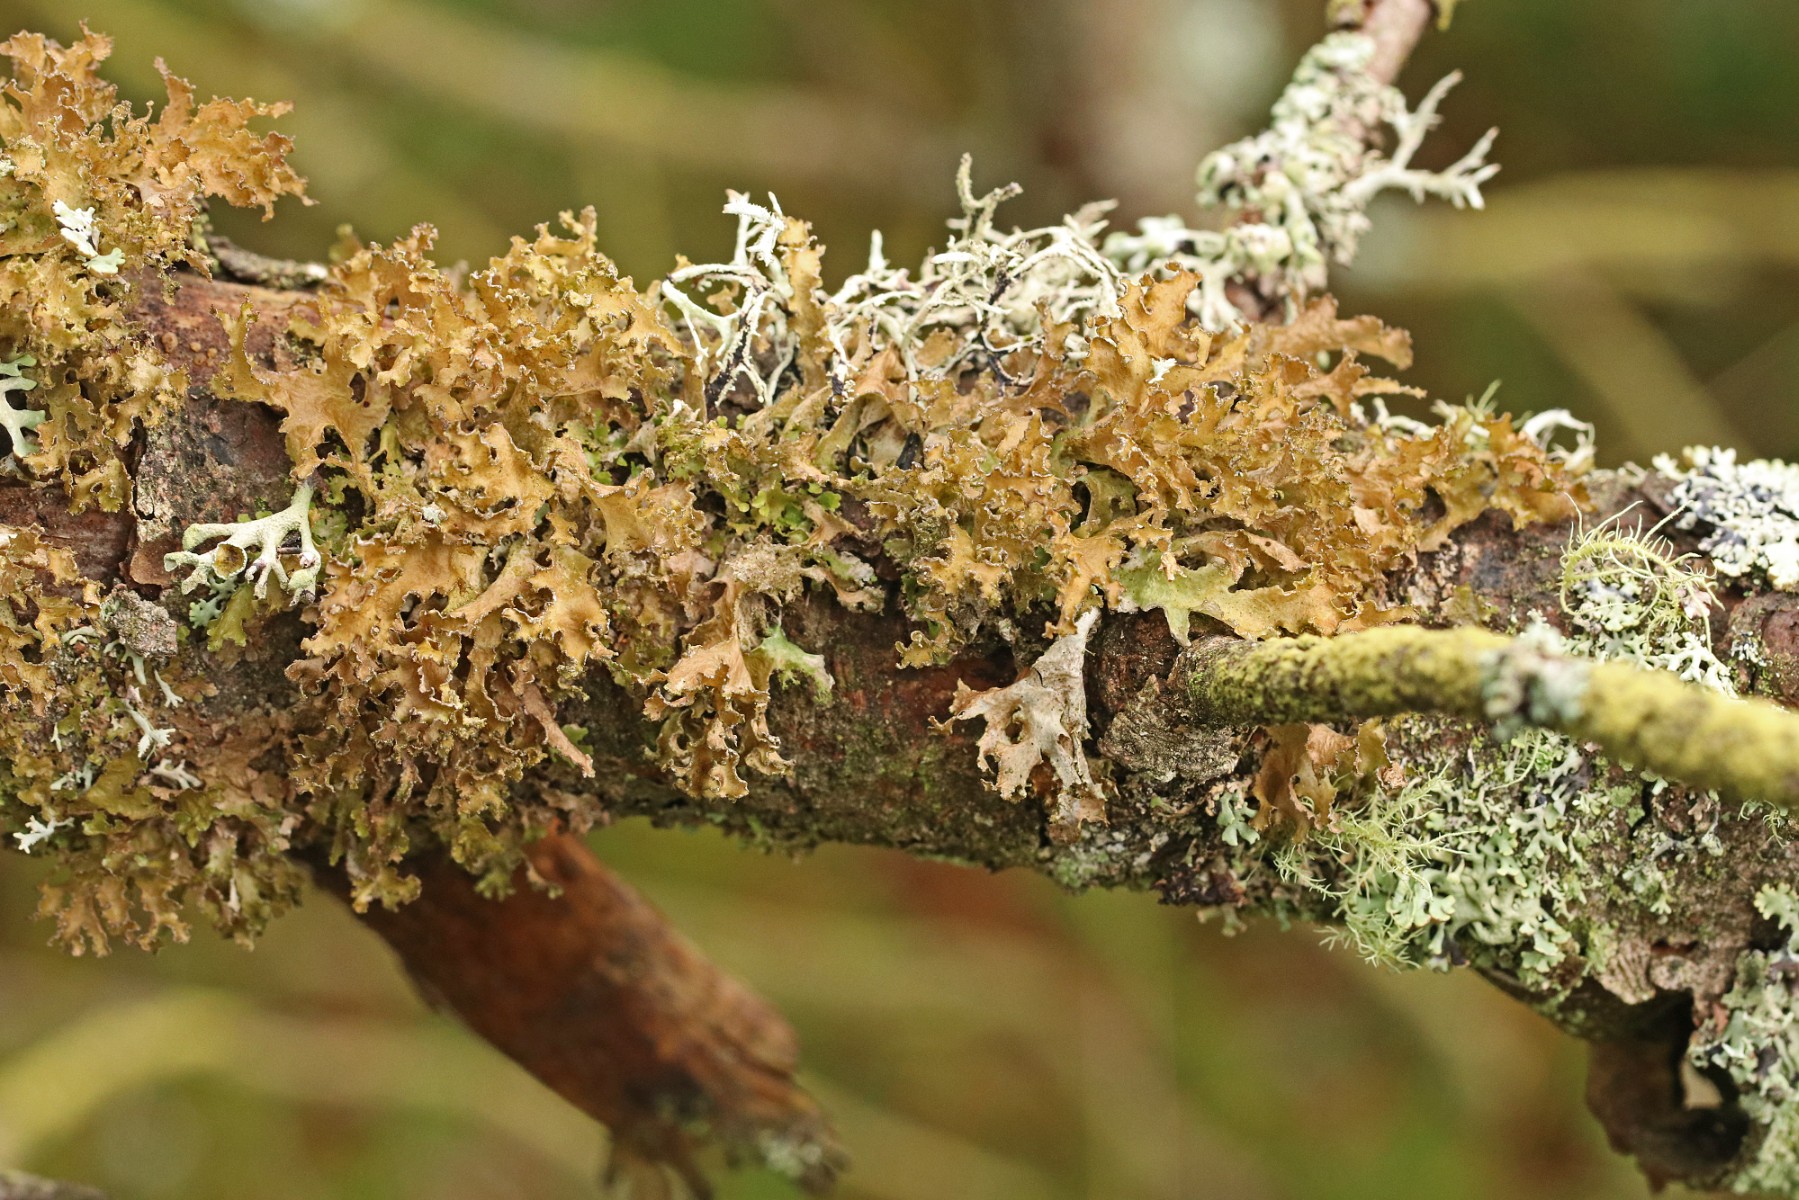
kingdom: Fungi
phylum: Ascomycota
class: Lecanoromycetes
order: Lecanorales
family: Parmeliaceae
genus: Nephromopsis
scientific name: Nephromopsis chlorophylla
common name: olivenbrun kruslav
